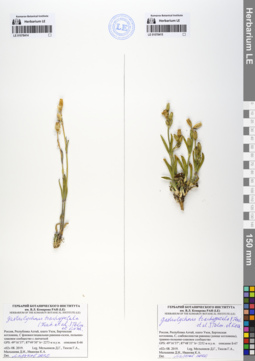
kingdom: Plantae
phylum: Tracheophyta
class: Magnoliopsida
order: Caryophyllales
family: Caryophyllaceae
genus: Silene
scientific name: Silene songarica
